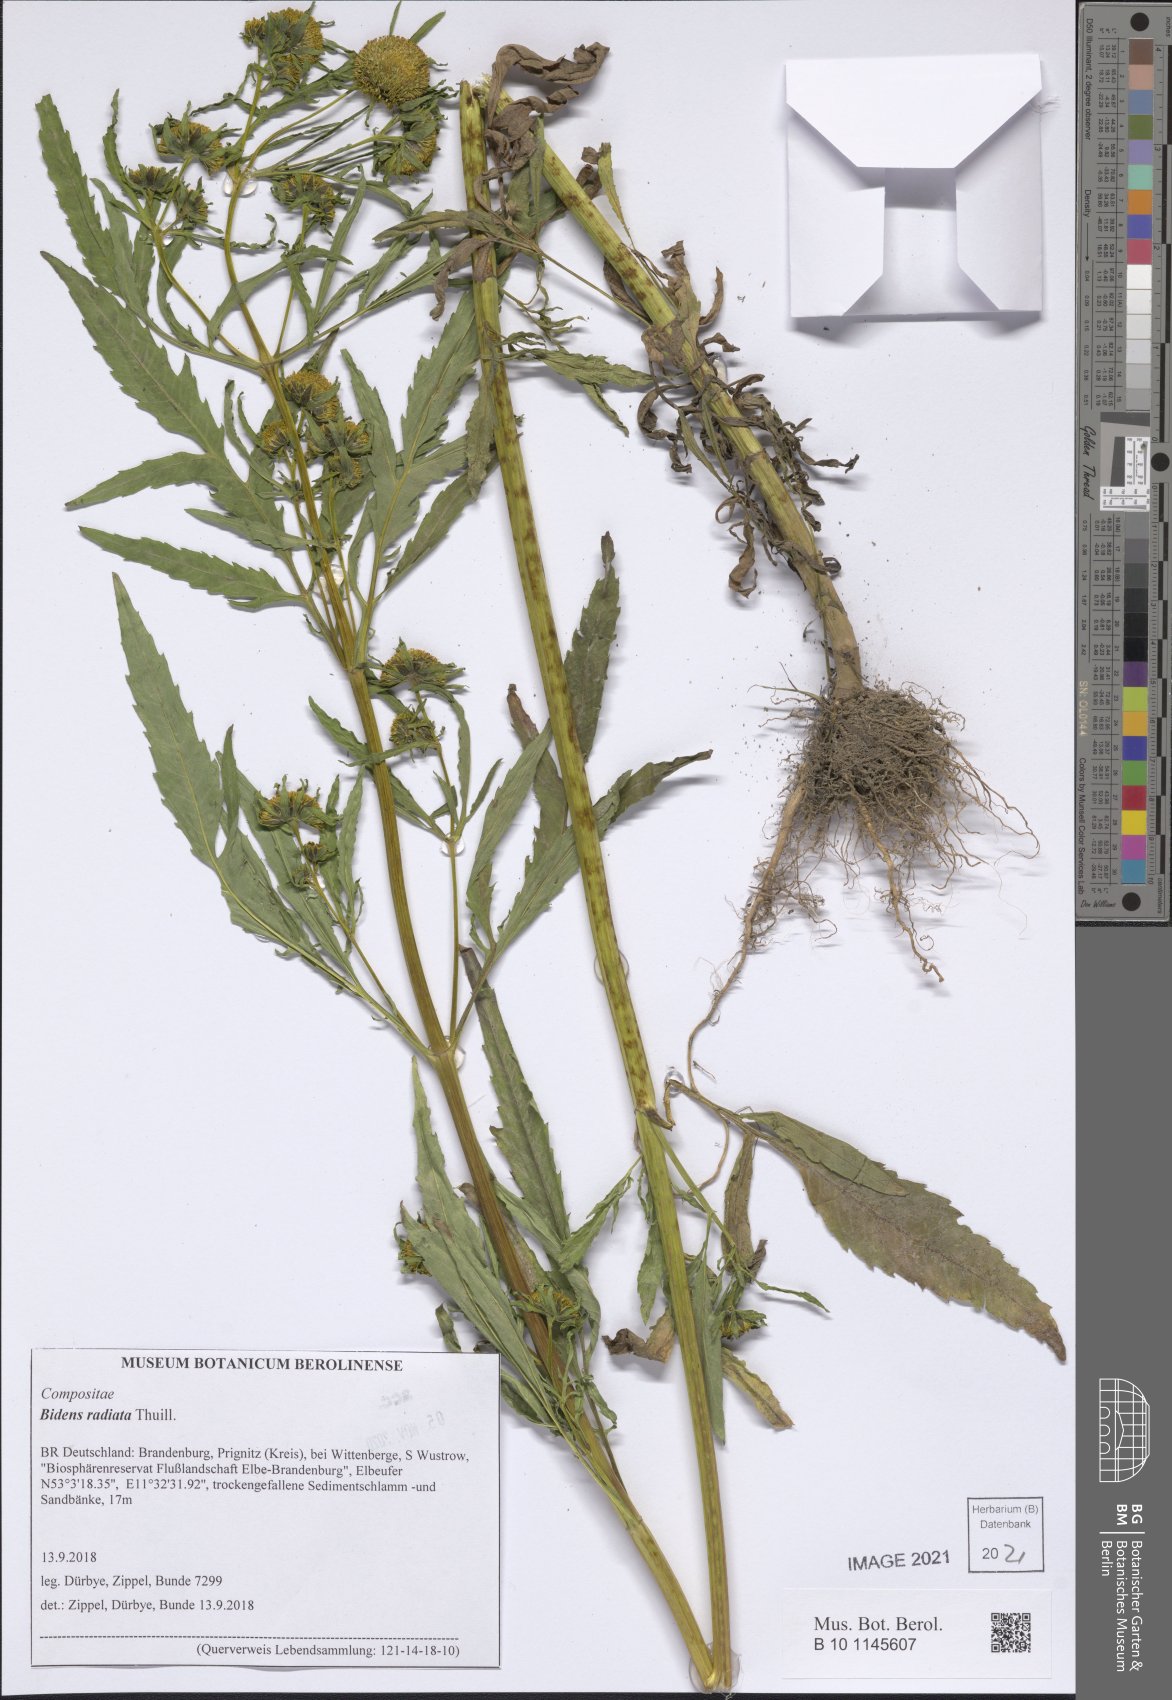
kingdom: Plantae
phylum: Tracheophyta
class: Magnoliopsida
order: Asterales
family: Asteraceae
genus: Bidens
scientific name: Bidens radiata
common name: Radiating bur-marigold
